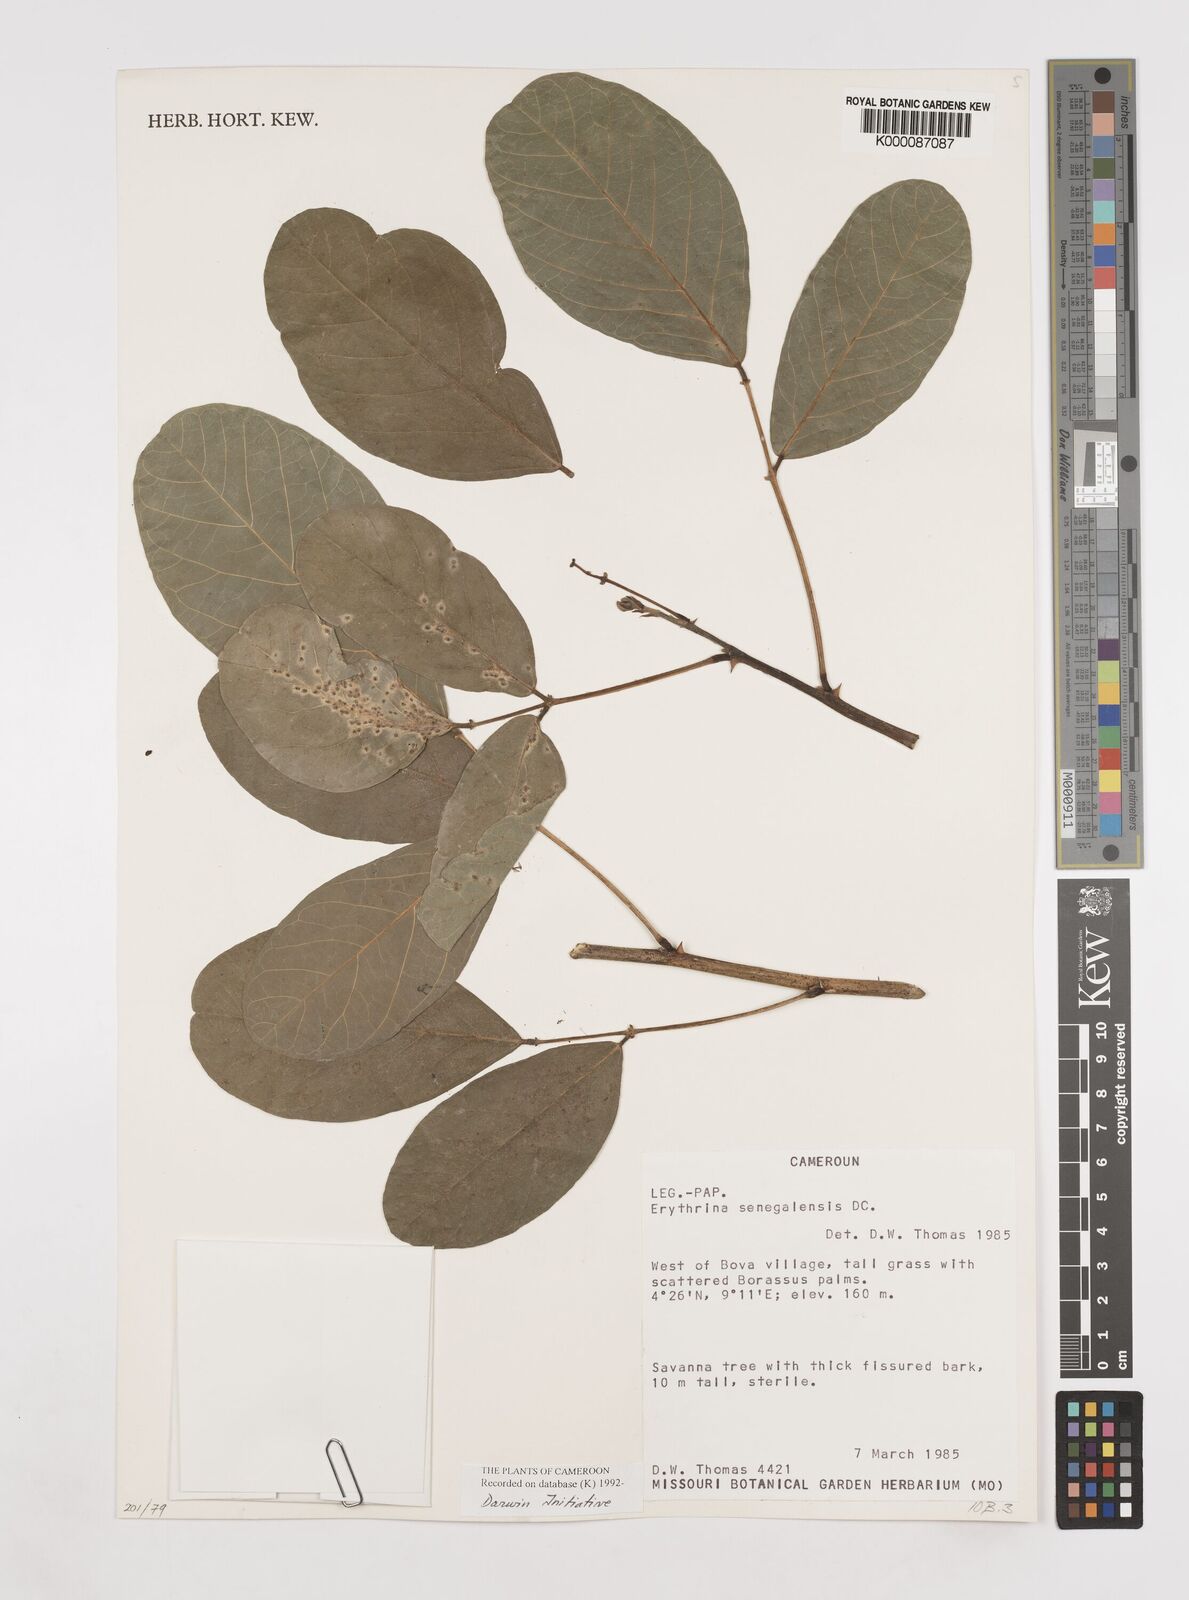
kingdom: Plantae
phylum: Tracheophyta
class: Magnoliopsida
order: Fabales
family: Fabaceae
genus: Erythrina
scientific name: Erythrina senegalensis
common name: Senegal coraltree
